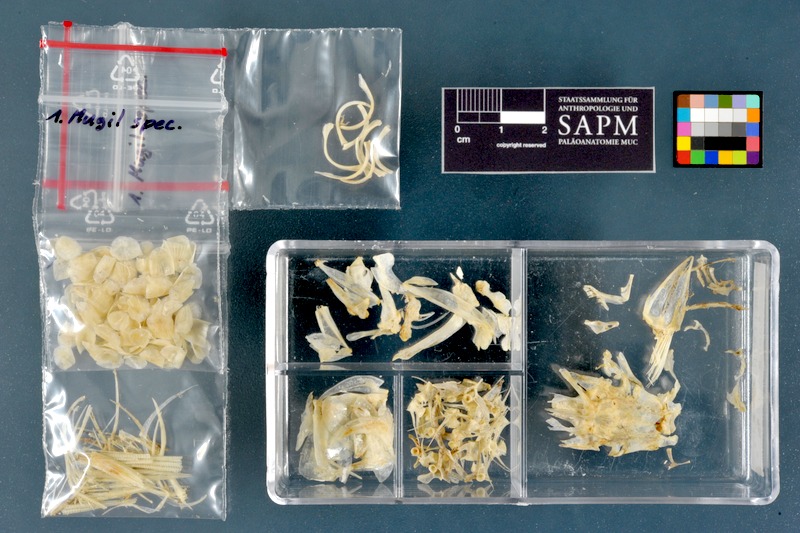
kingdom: Animalia
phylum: Chordata
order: Mugiliformes
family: Mugilidae
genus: Mugil
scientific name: Mugil
